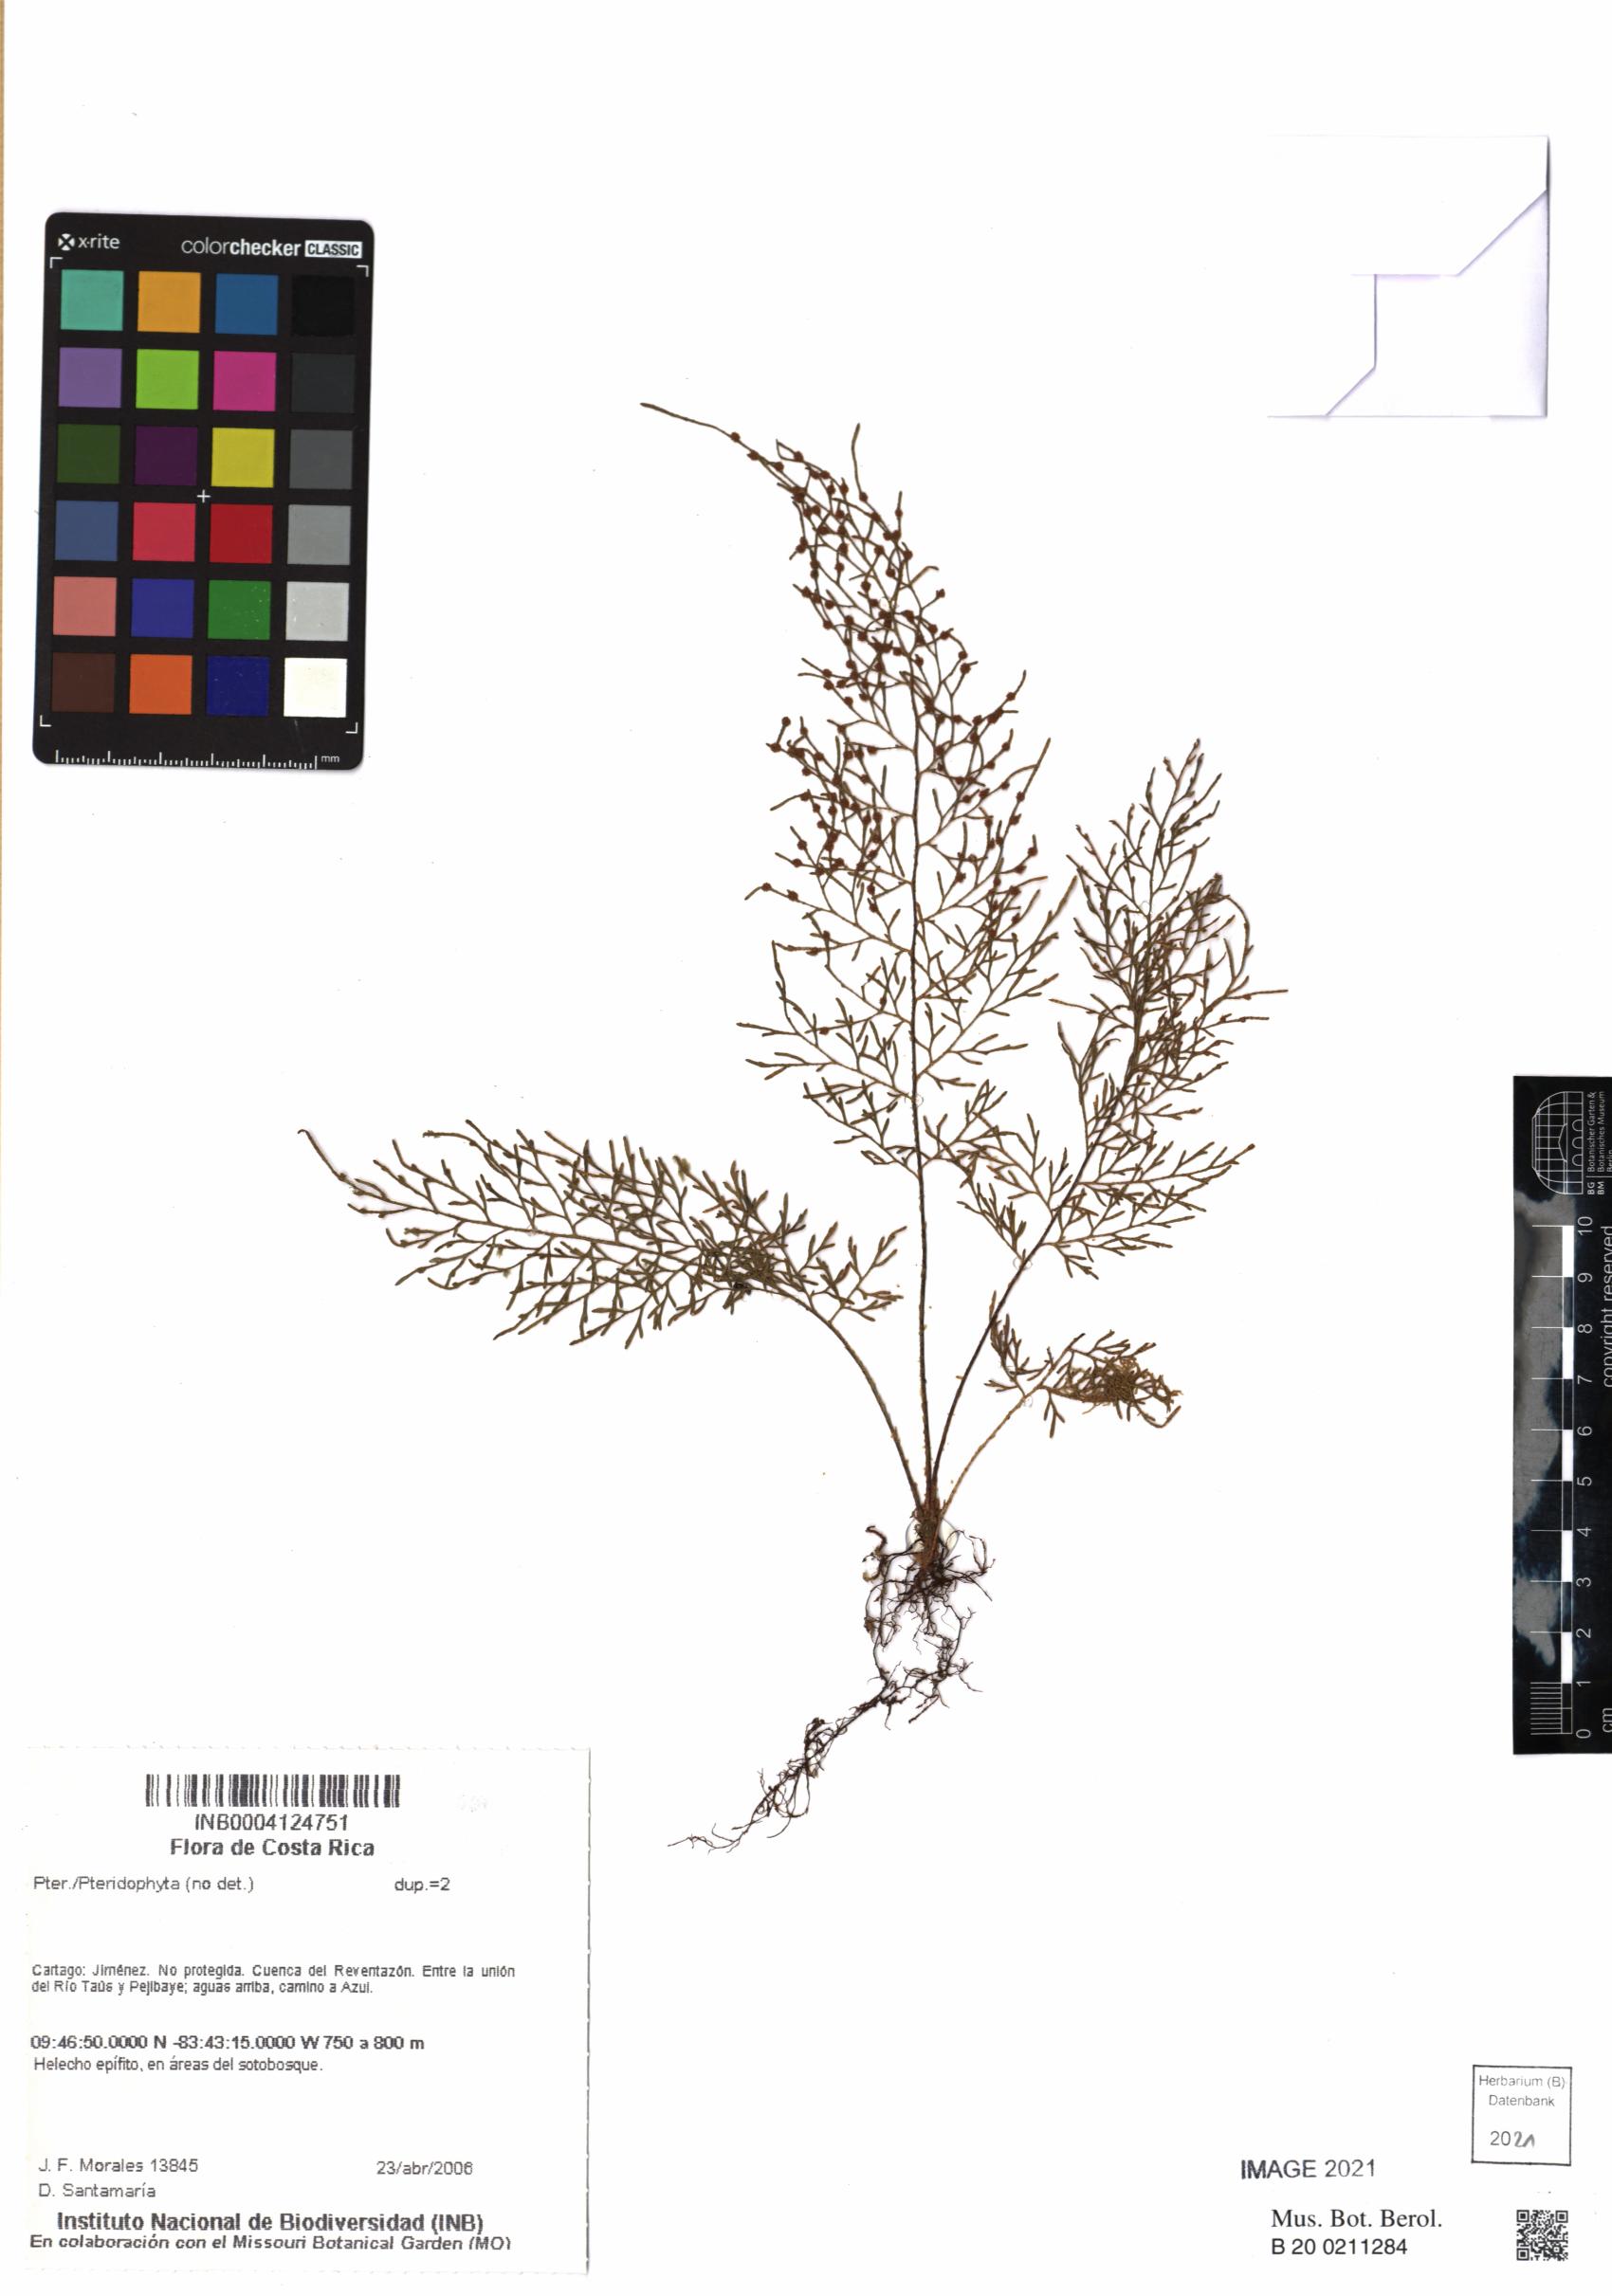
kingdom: Plantae
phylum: Tracheophyta
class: Polypodiopsida
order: Polypodiales
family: Polypodiaceae
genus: Pleopeltis
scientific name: Pleopeltis friedrichsthaliana
